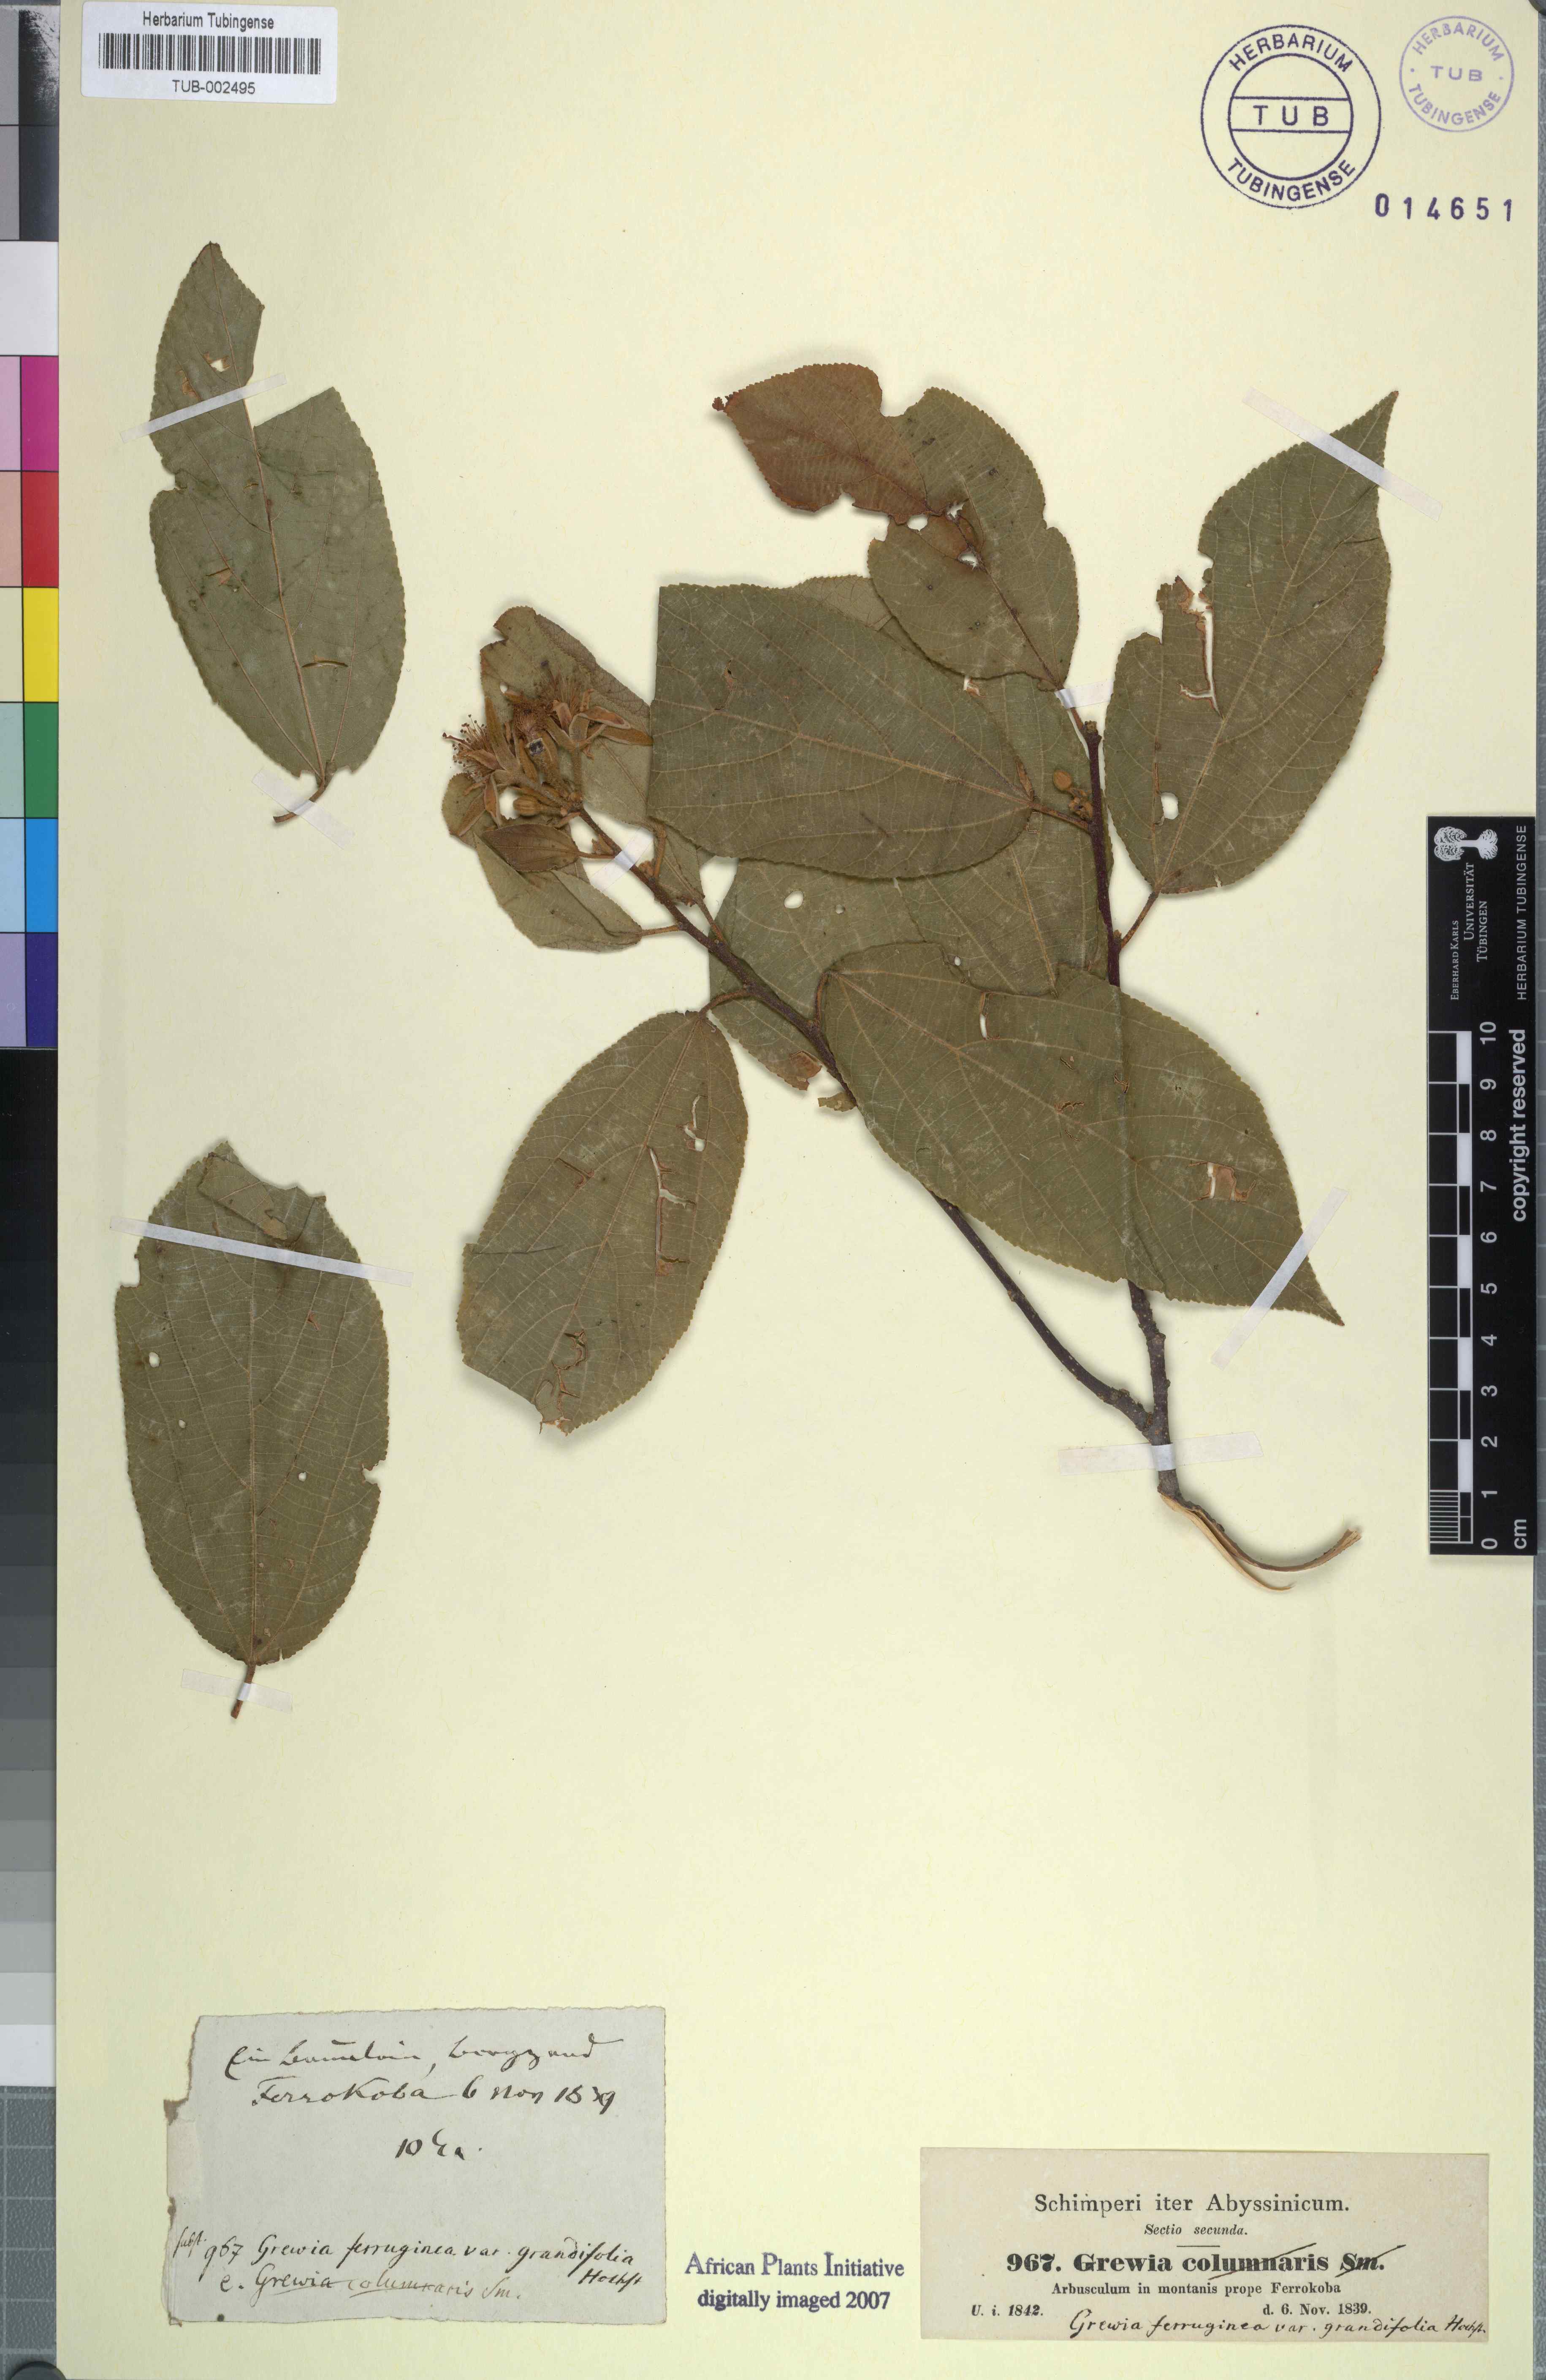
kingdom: Plantae
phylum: Tracheophyta
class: Magnoliopsida
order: Malvales
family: Malvaceae
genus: Grewia
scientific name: Grewia scabrida
